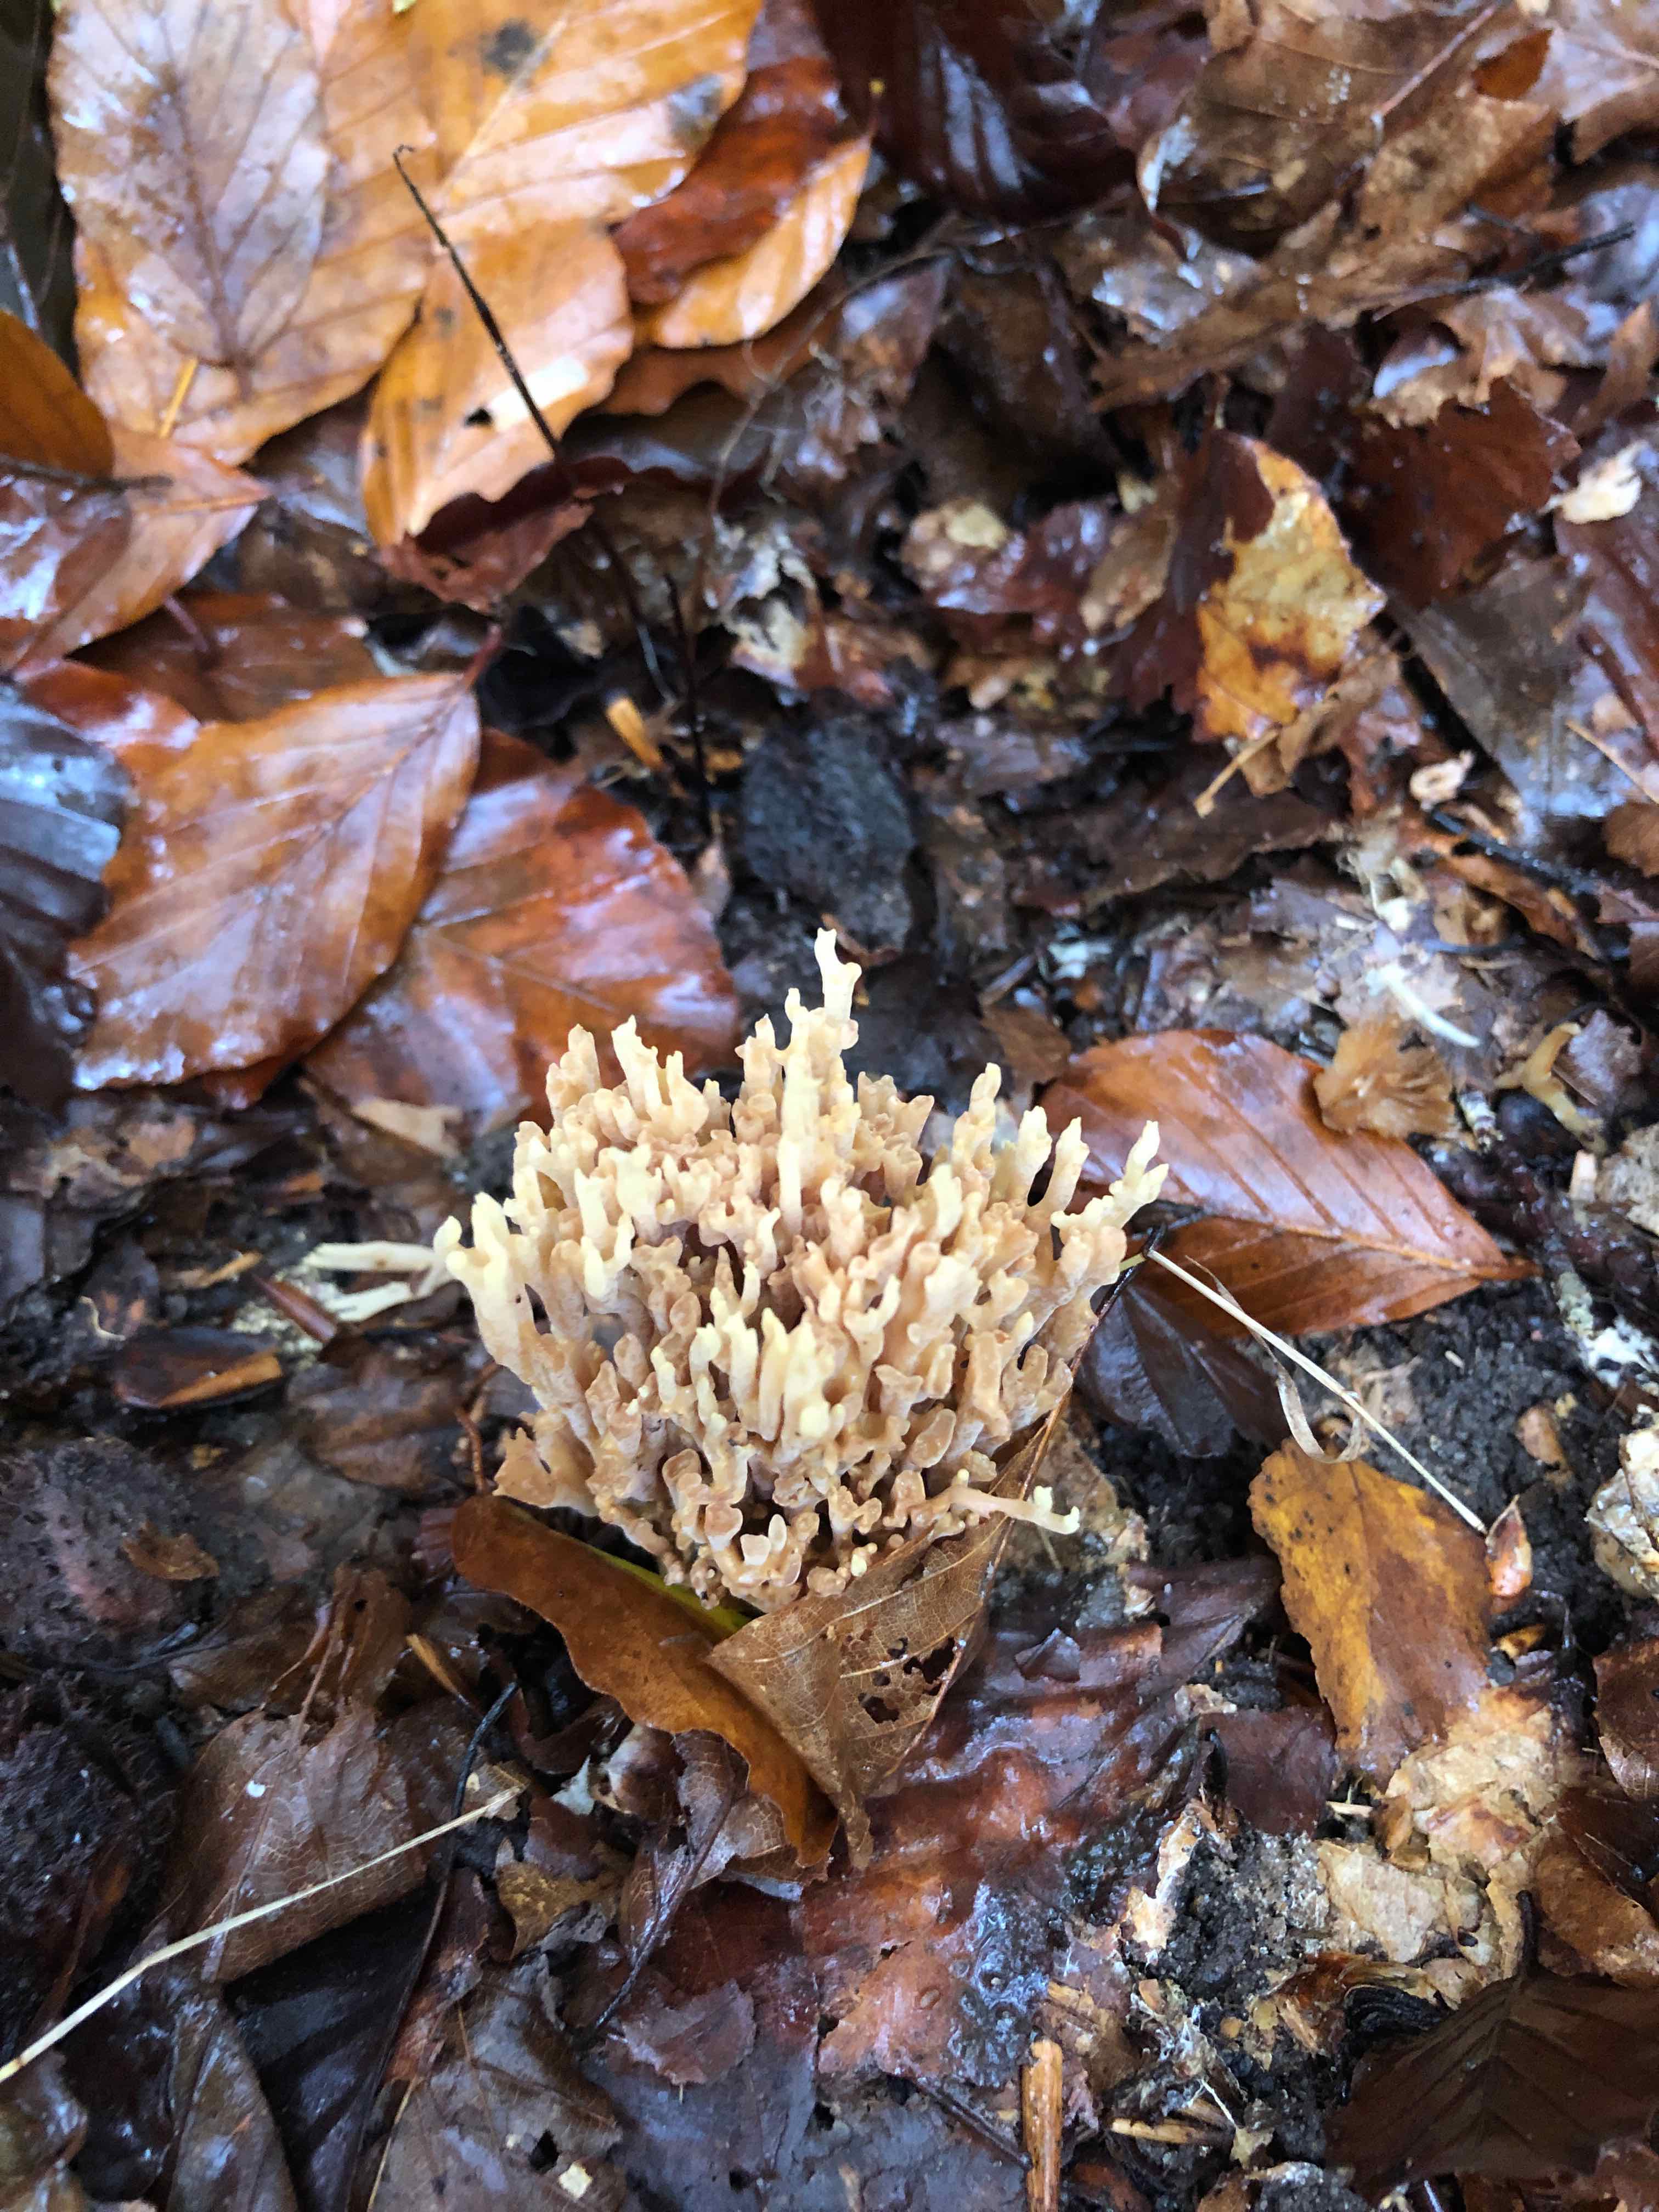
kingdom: Fungi
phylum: Basidiomycota
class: Agaricomycetes
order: Gomphales
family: Gomphaceae
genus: Ramaria
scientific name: Ramaria stricta
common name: rank koralsvamp
